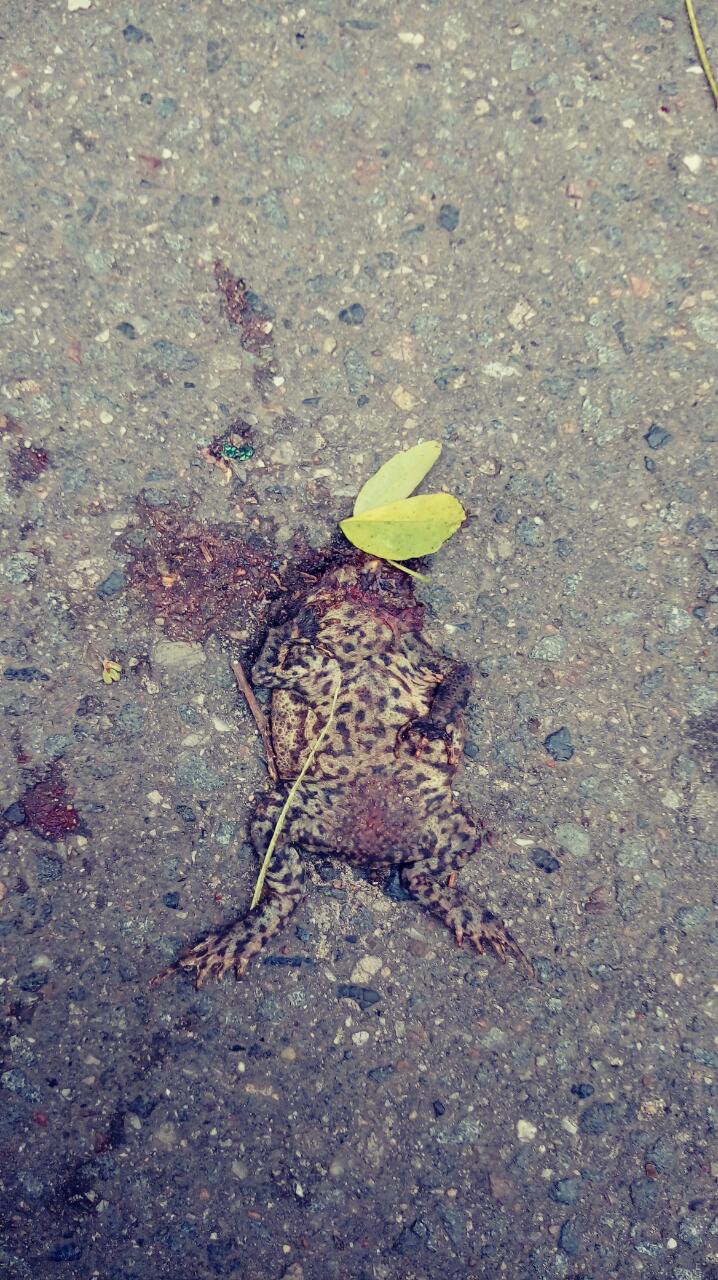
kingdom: Animalia
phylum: Chordata
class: Amphibia
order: Anura
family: Bufonidae
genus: Bufo
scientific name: Bufo bufo
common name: Common toad
